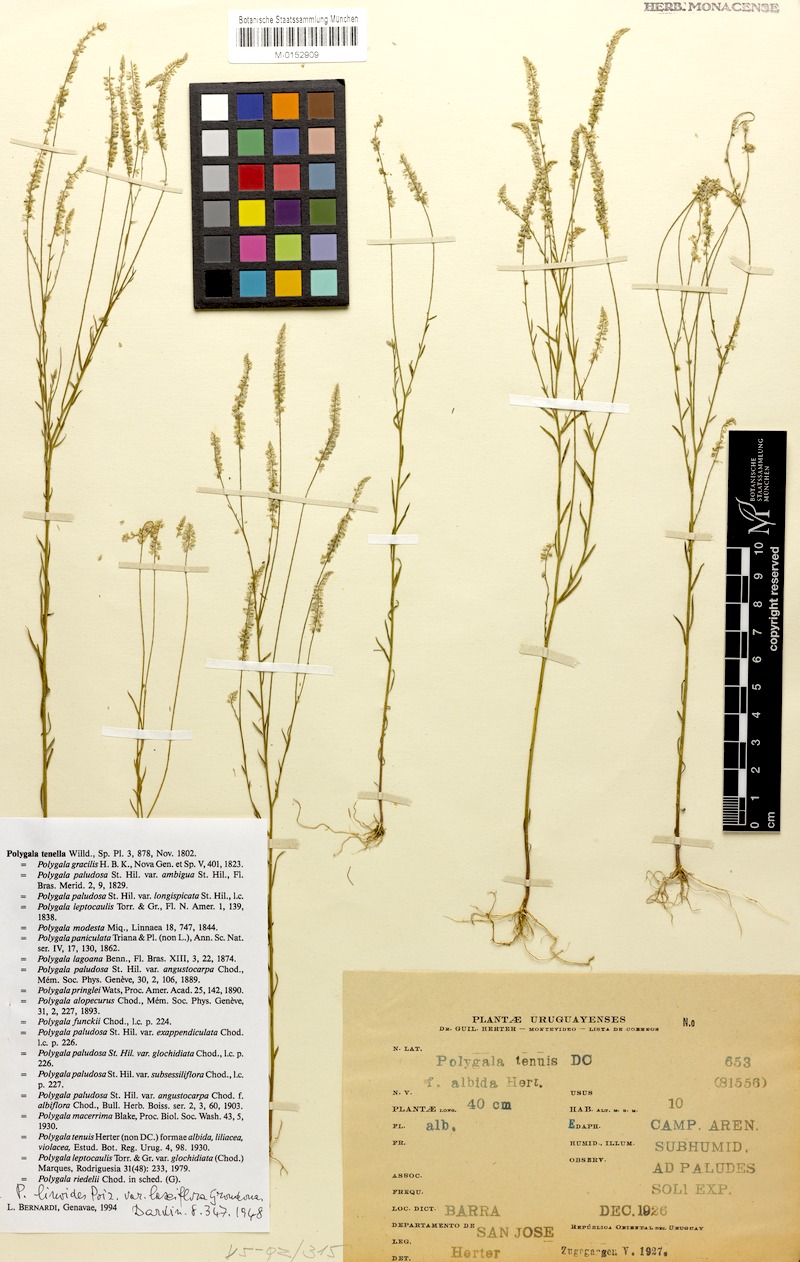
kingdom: Plantae
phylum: Tracheophyta
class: Magnoliopsida
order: Fabales
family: Polygalaceae
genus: Polygala
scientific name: Polygala tenella
